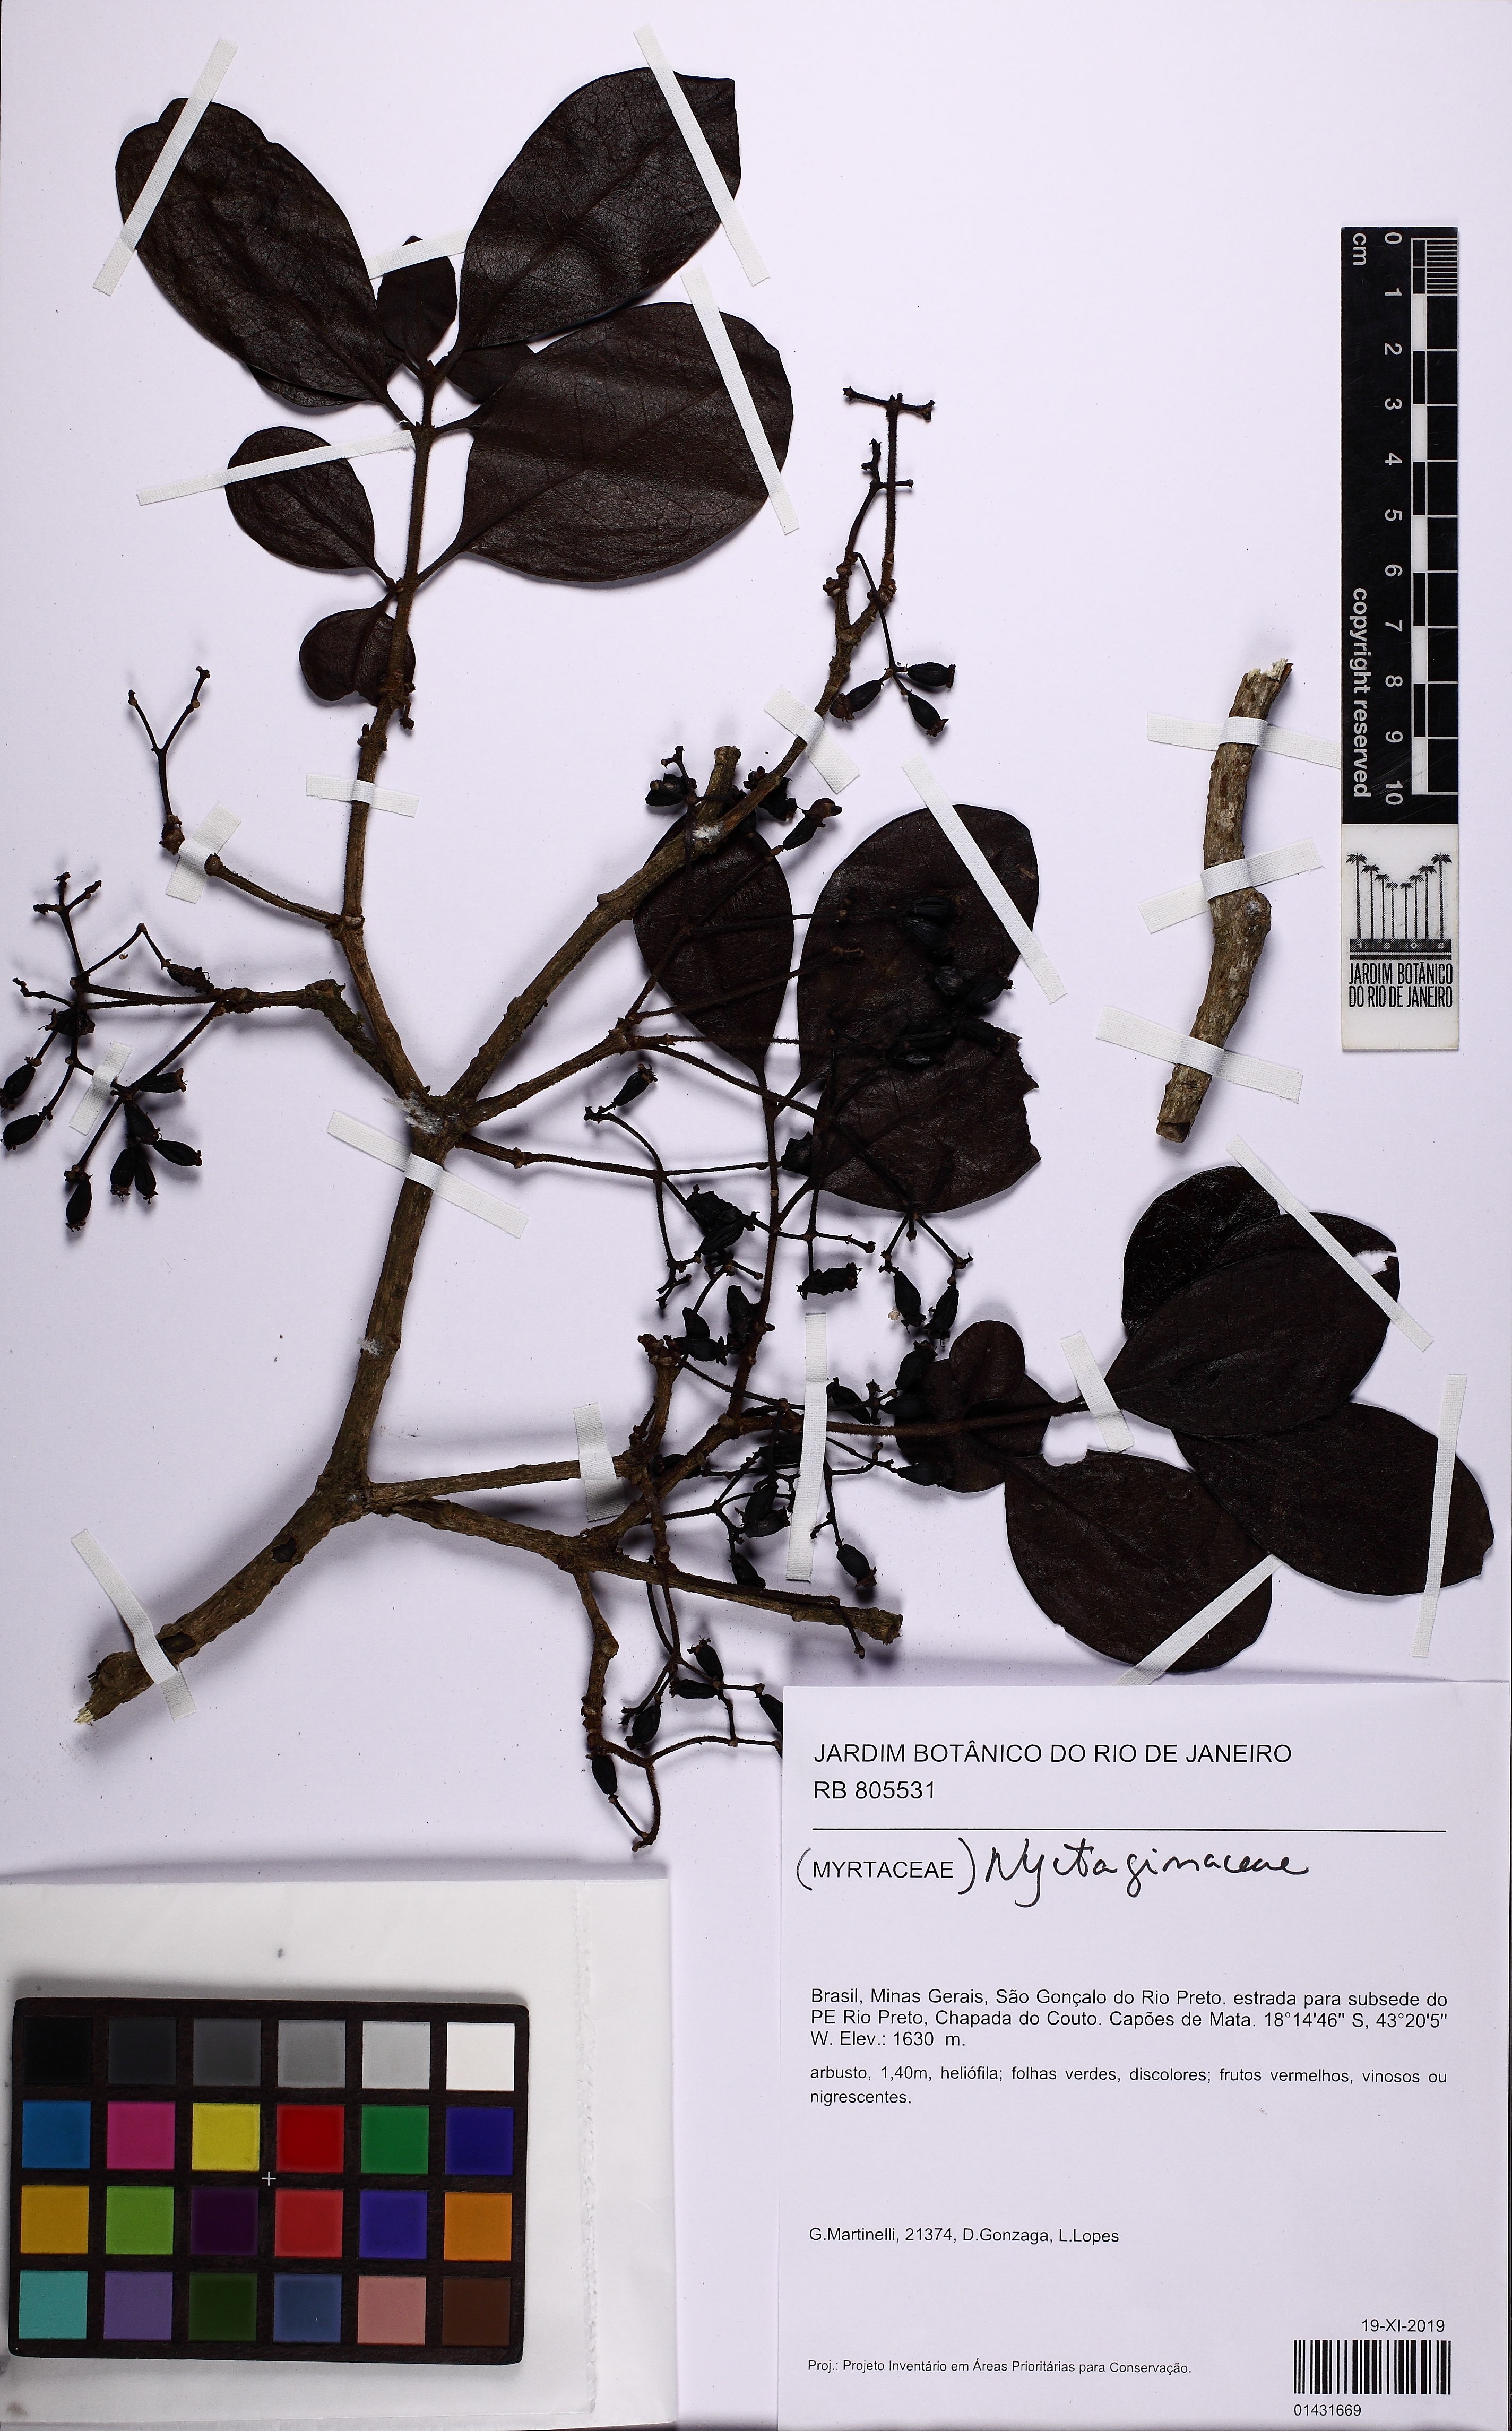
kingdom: Plantae
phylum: Tracheophyta
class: Magnoliopsida
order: Caryophyllales
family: Nyctaginaceae
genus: Guapira
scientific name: Guapira tomentosa
